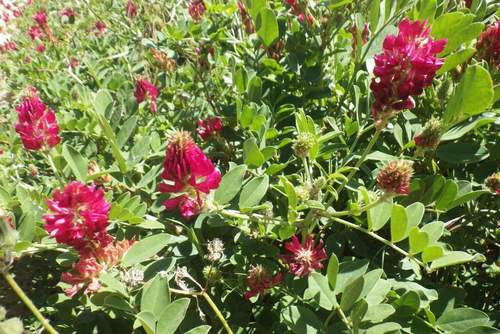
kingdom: Plantae
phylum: Tracheophyta
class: Magnoliopsida
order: Fabales
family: Fabaceae
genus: Sulla
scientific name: Sulla coronaria
